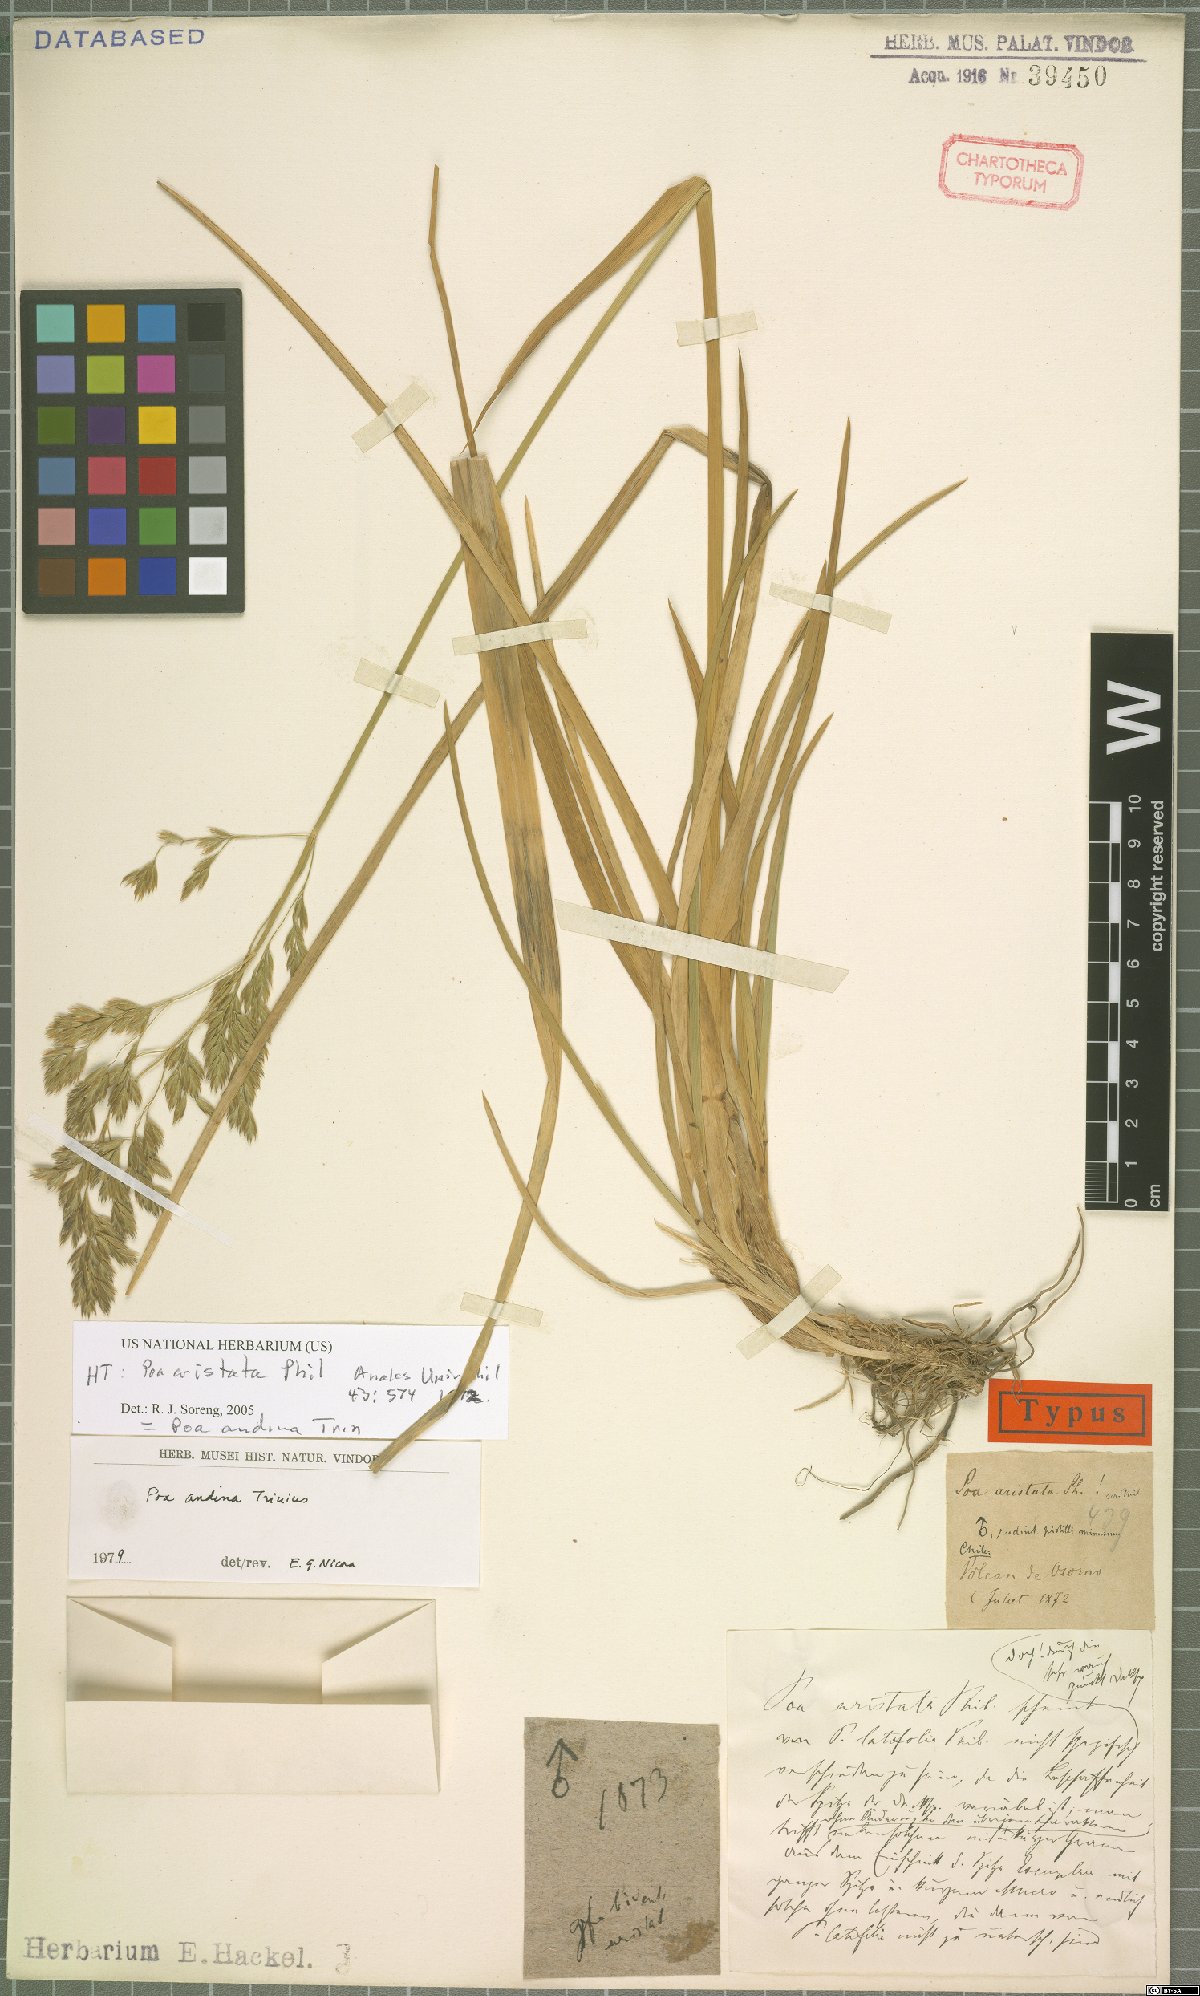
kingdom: Plantae
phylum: Tracheophyta
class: Liliopsida
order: Poales
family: Poaceae
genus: Nicoraepoa
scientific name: Nicoraepoa andina
